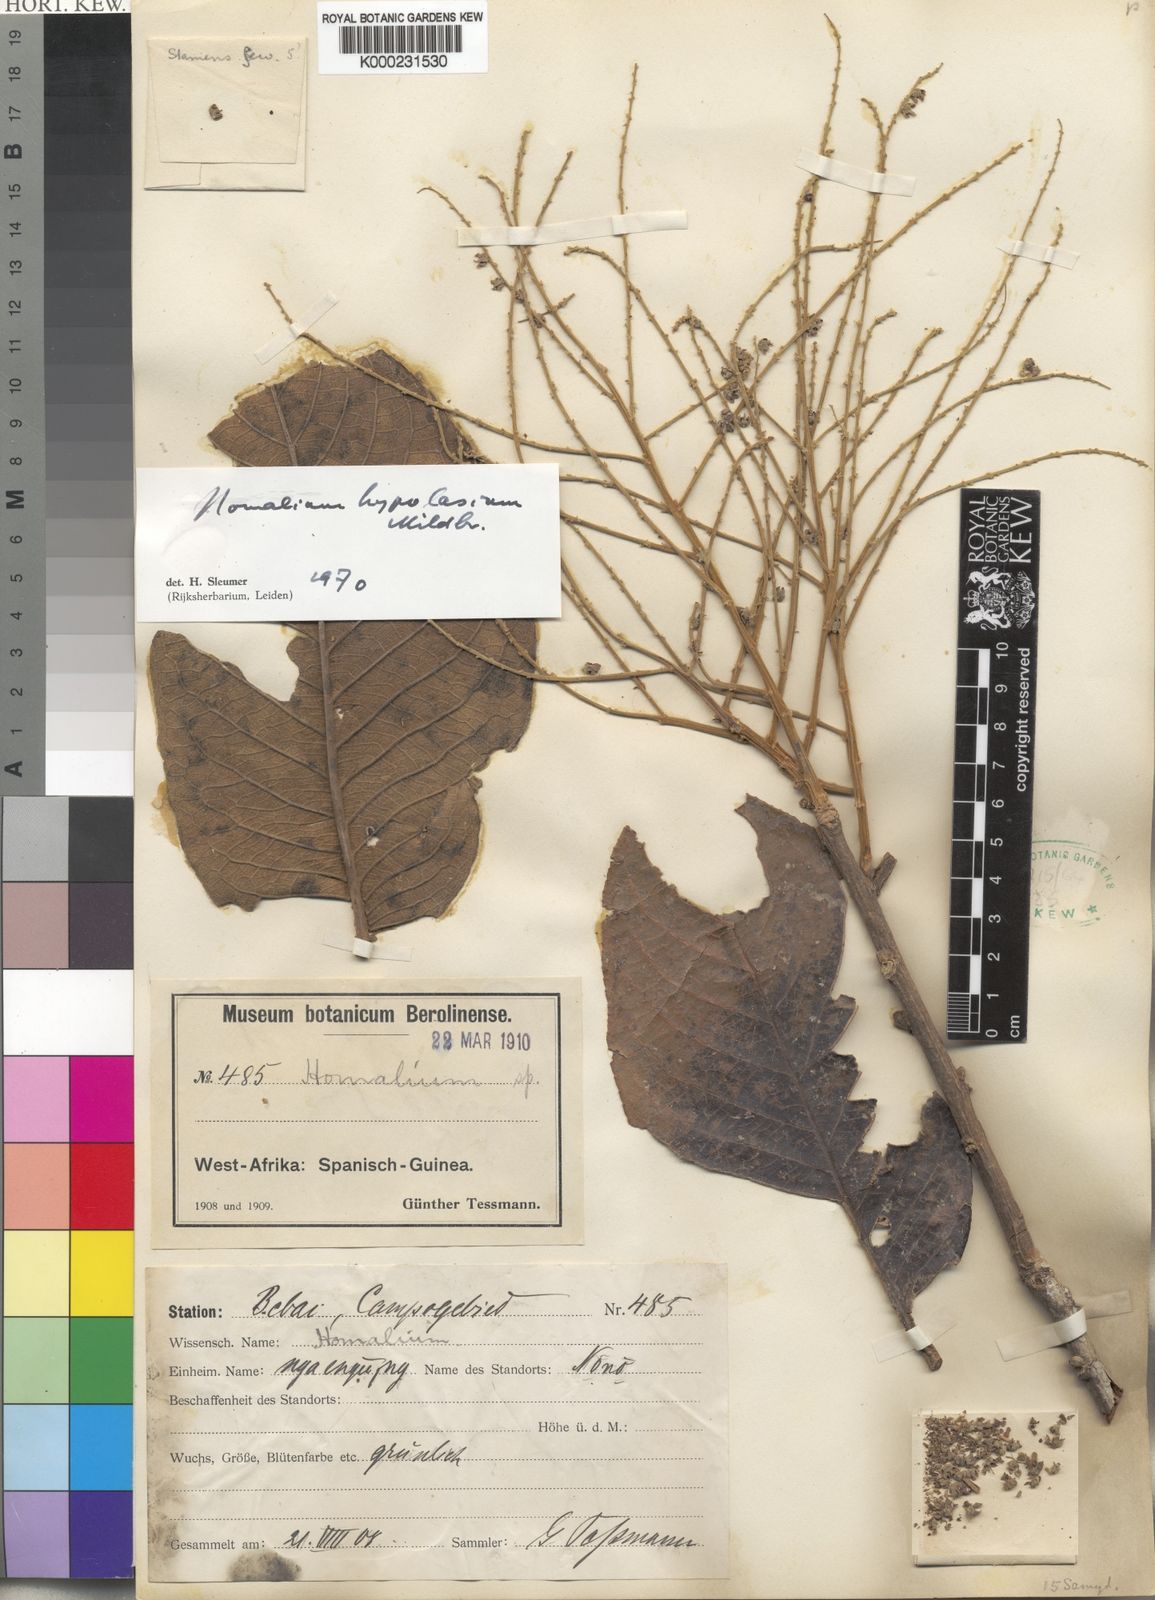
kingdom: Plantae
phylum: Tracheophyta
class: Magnoliopsida
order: Malpighiales
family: Salicaceae
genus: Homalium
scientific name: Homalium hypolasium
